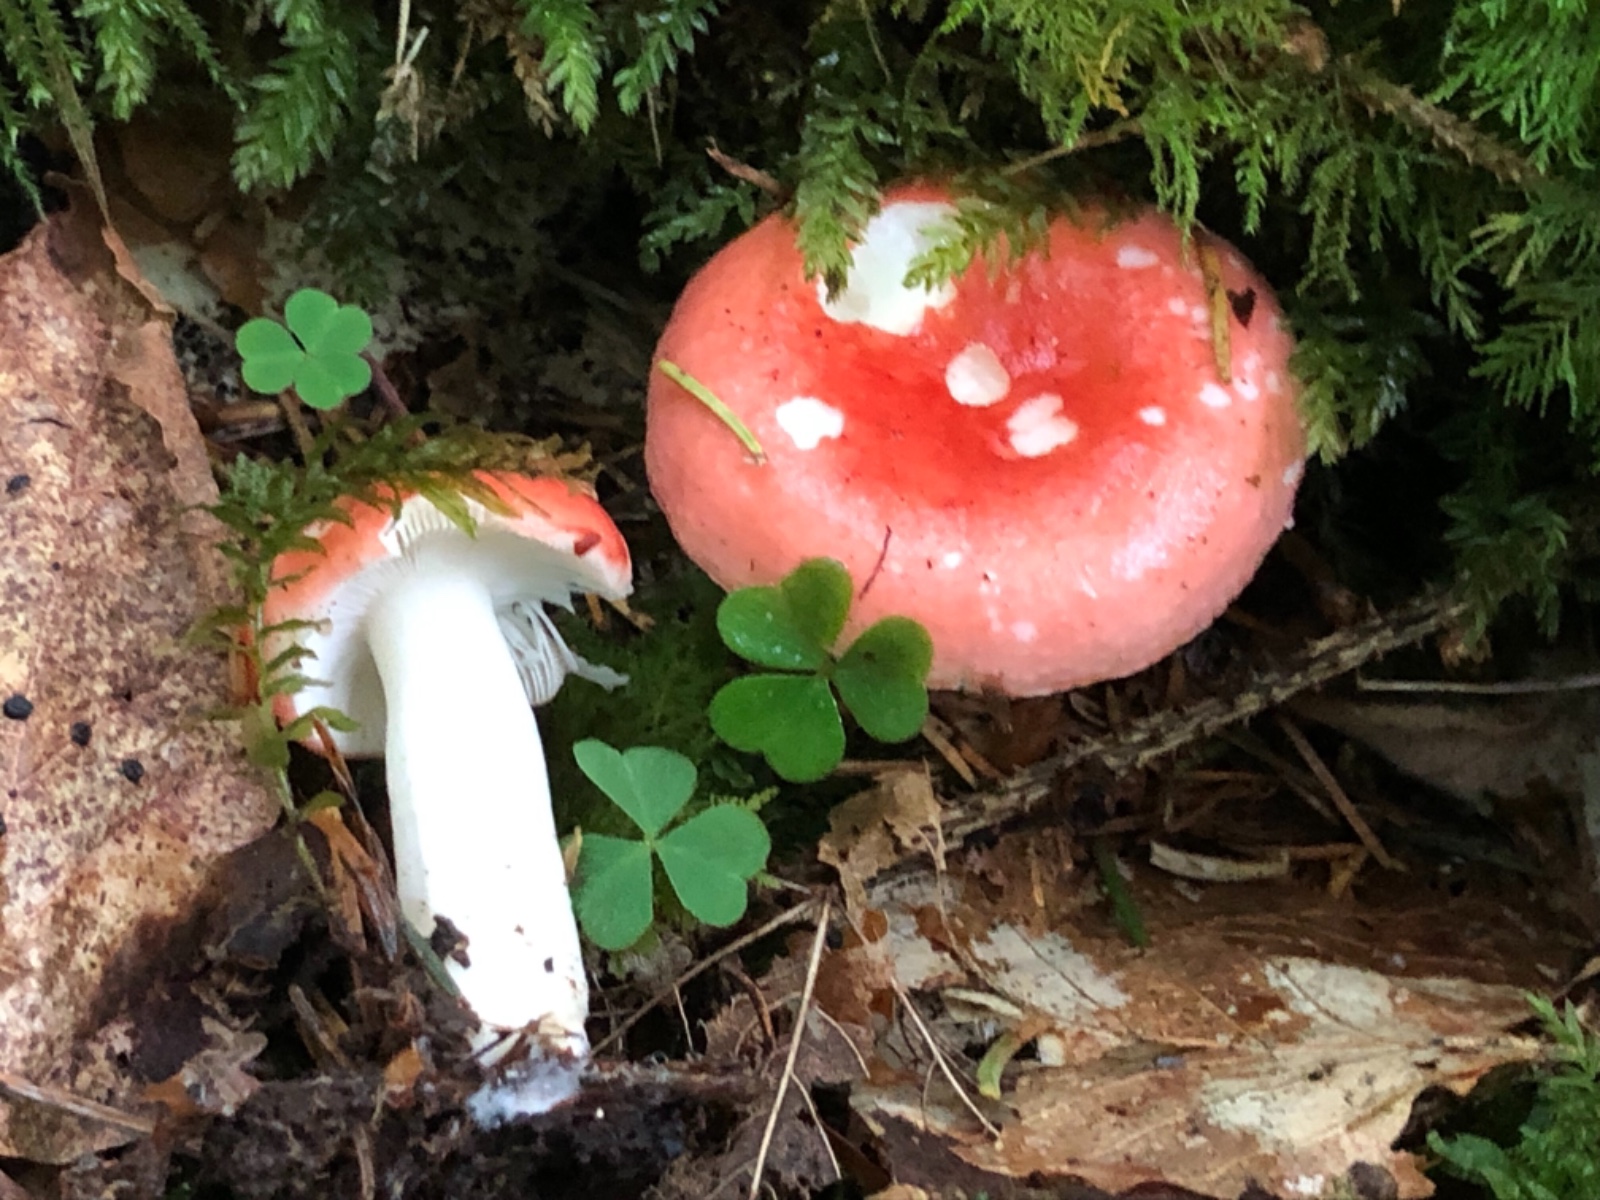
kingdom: Fungi
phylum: Basidiomycota
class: Agaricomycetes
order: Russulales
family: Russulaceae
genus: Russula
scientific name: Russula nobilis
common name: lille gift-skørhat
